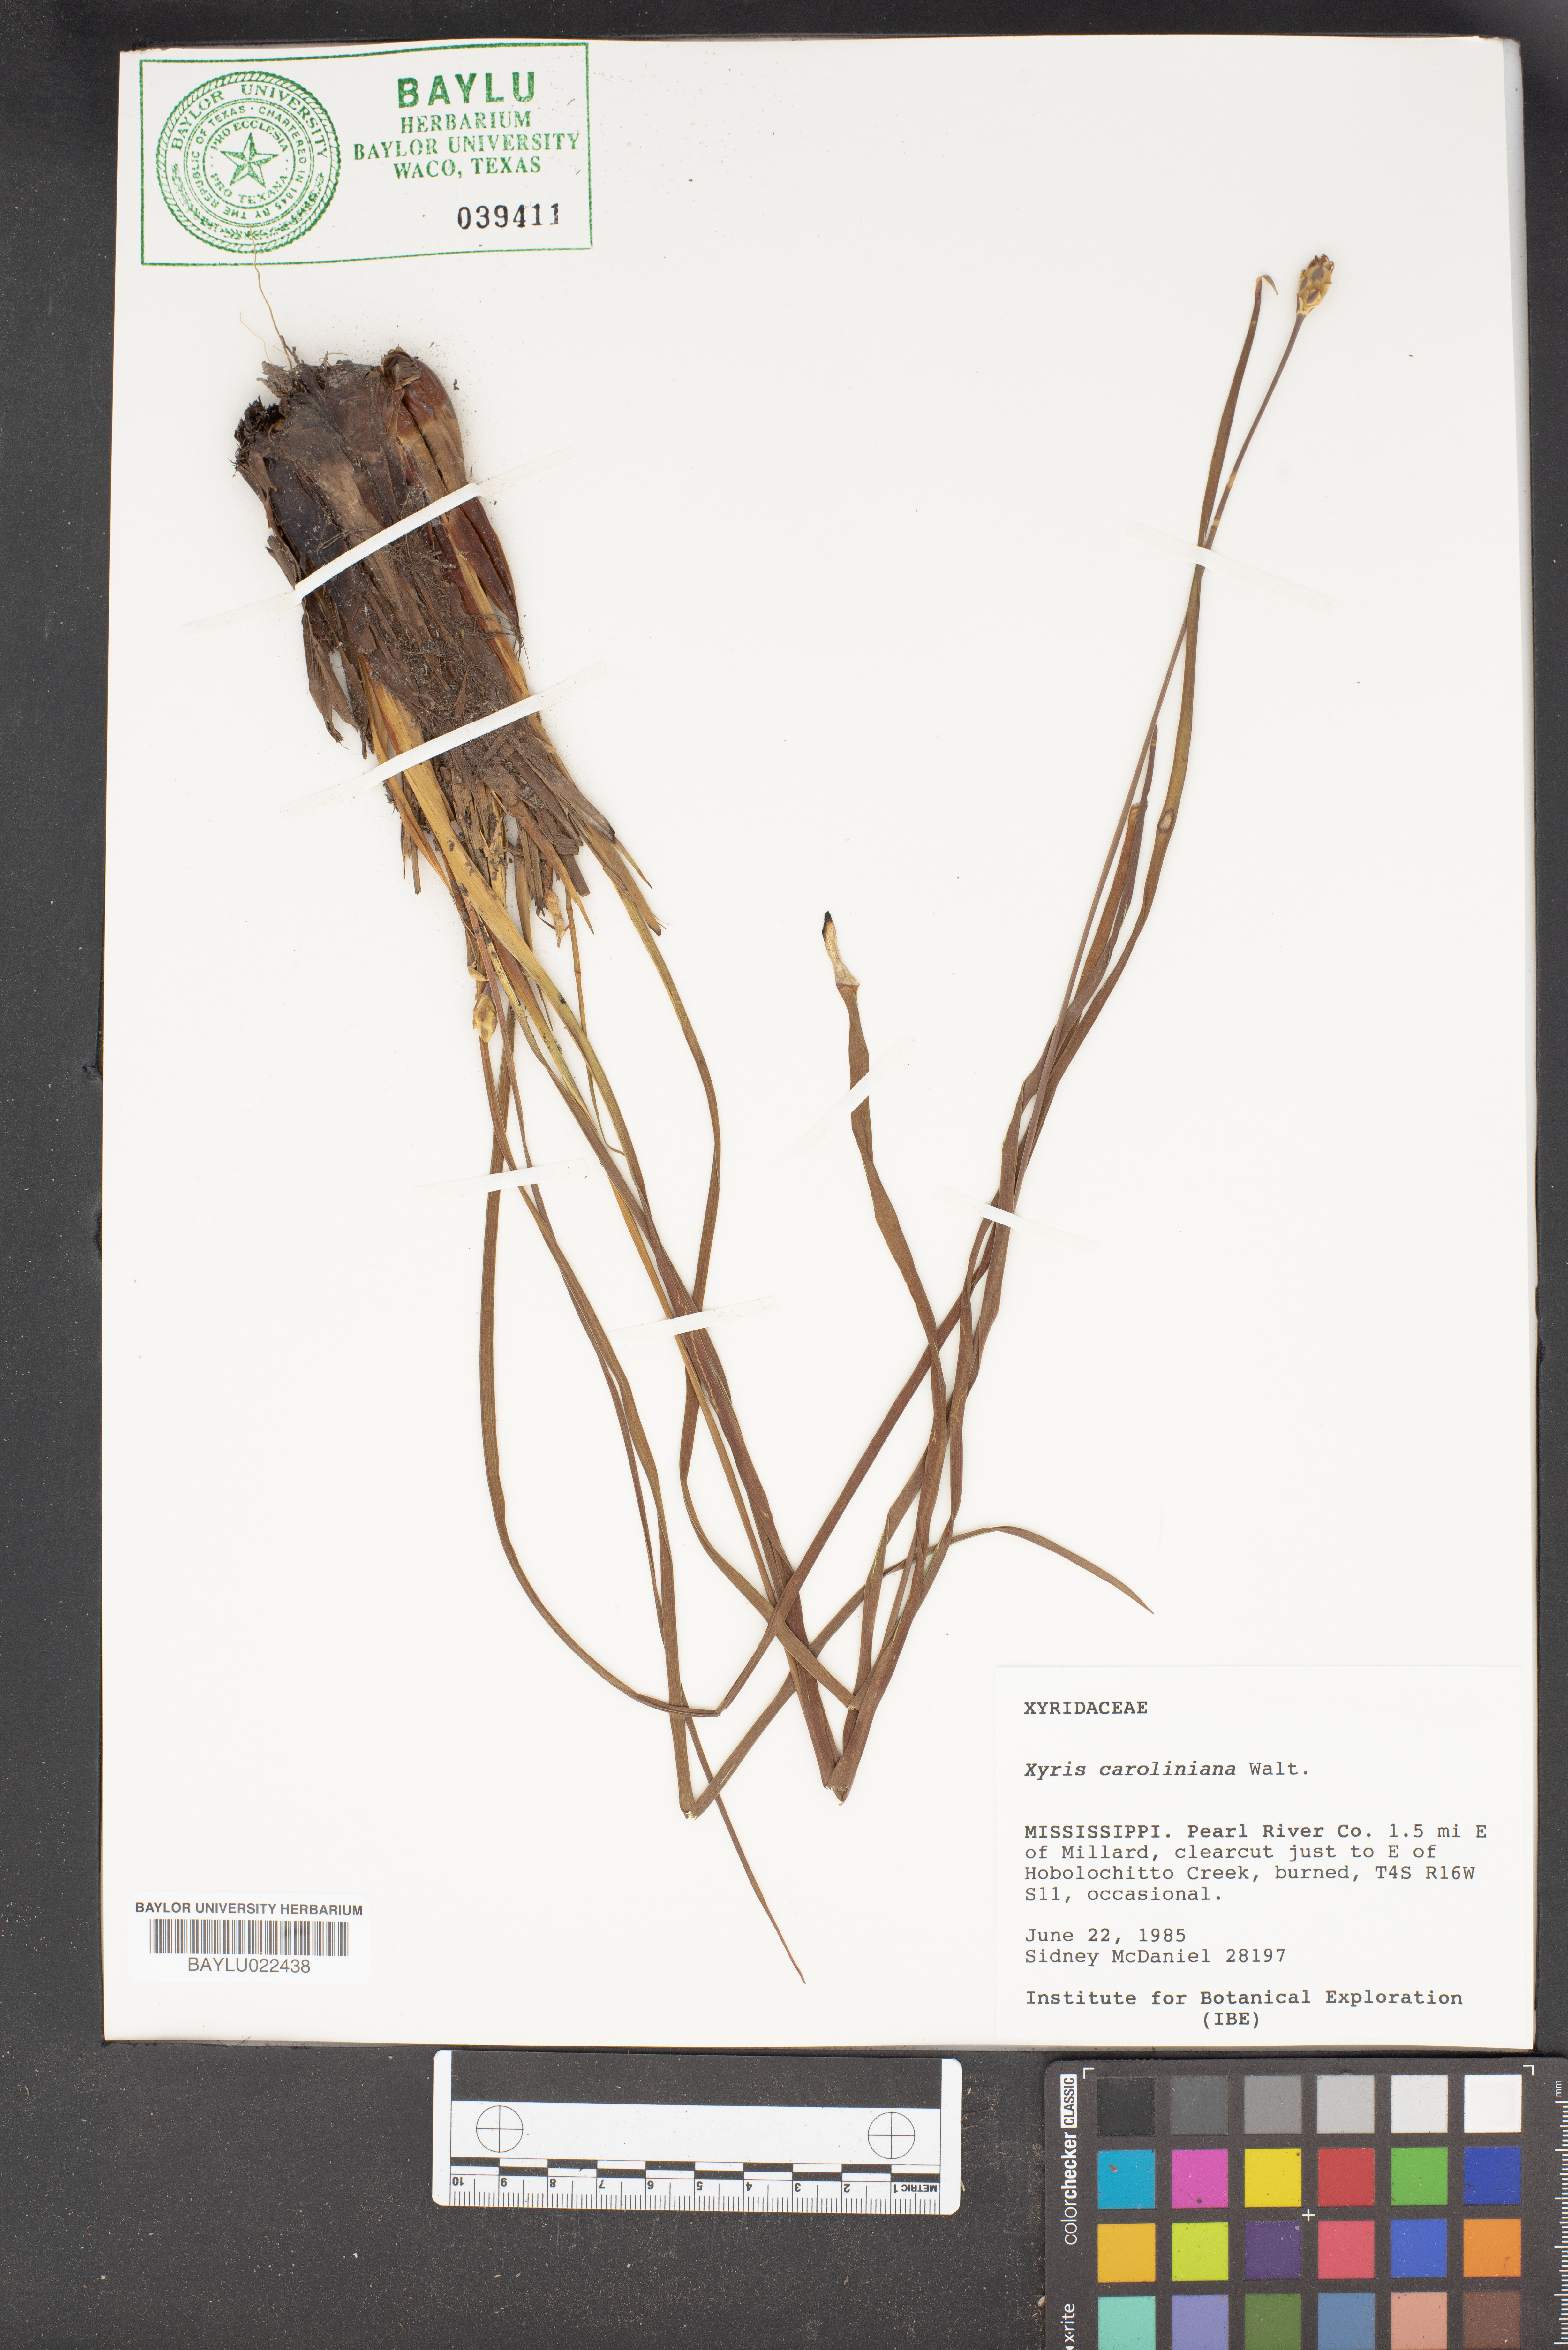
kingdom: Plantae
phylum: Tracheophyta
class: Liliopsida
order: Poales
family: Xyridaceae
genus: Xyris
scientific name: Xyris caroliniana
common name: Carolina yellow-eyed-grass
